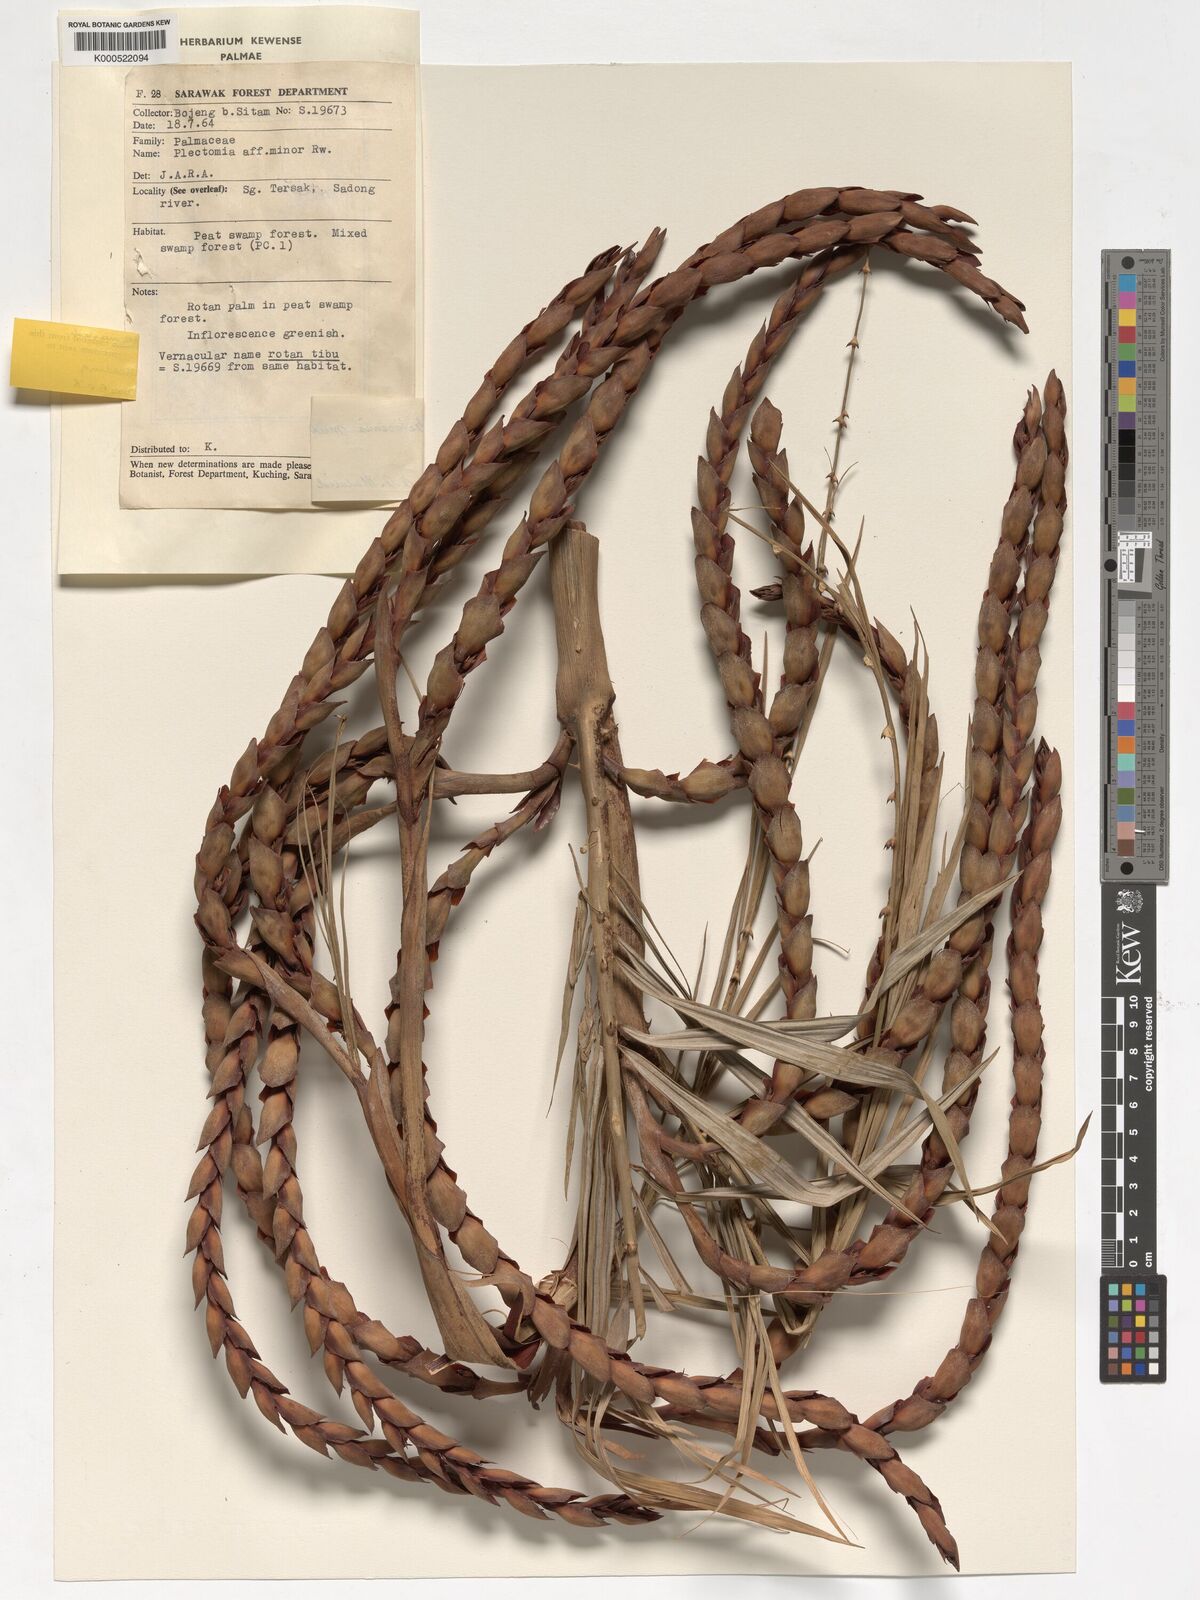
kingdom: Plantae
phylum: Tracheophyta
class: Liliopsida
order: Arecales
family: Arecaceae
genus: Plectocomia
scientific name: Plectocomia mulleri
